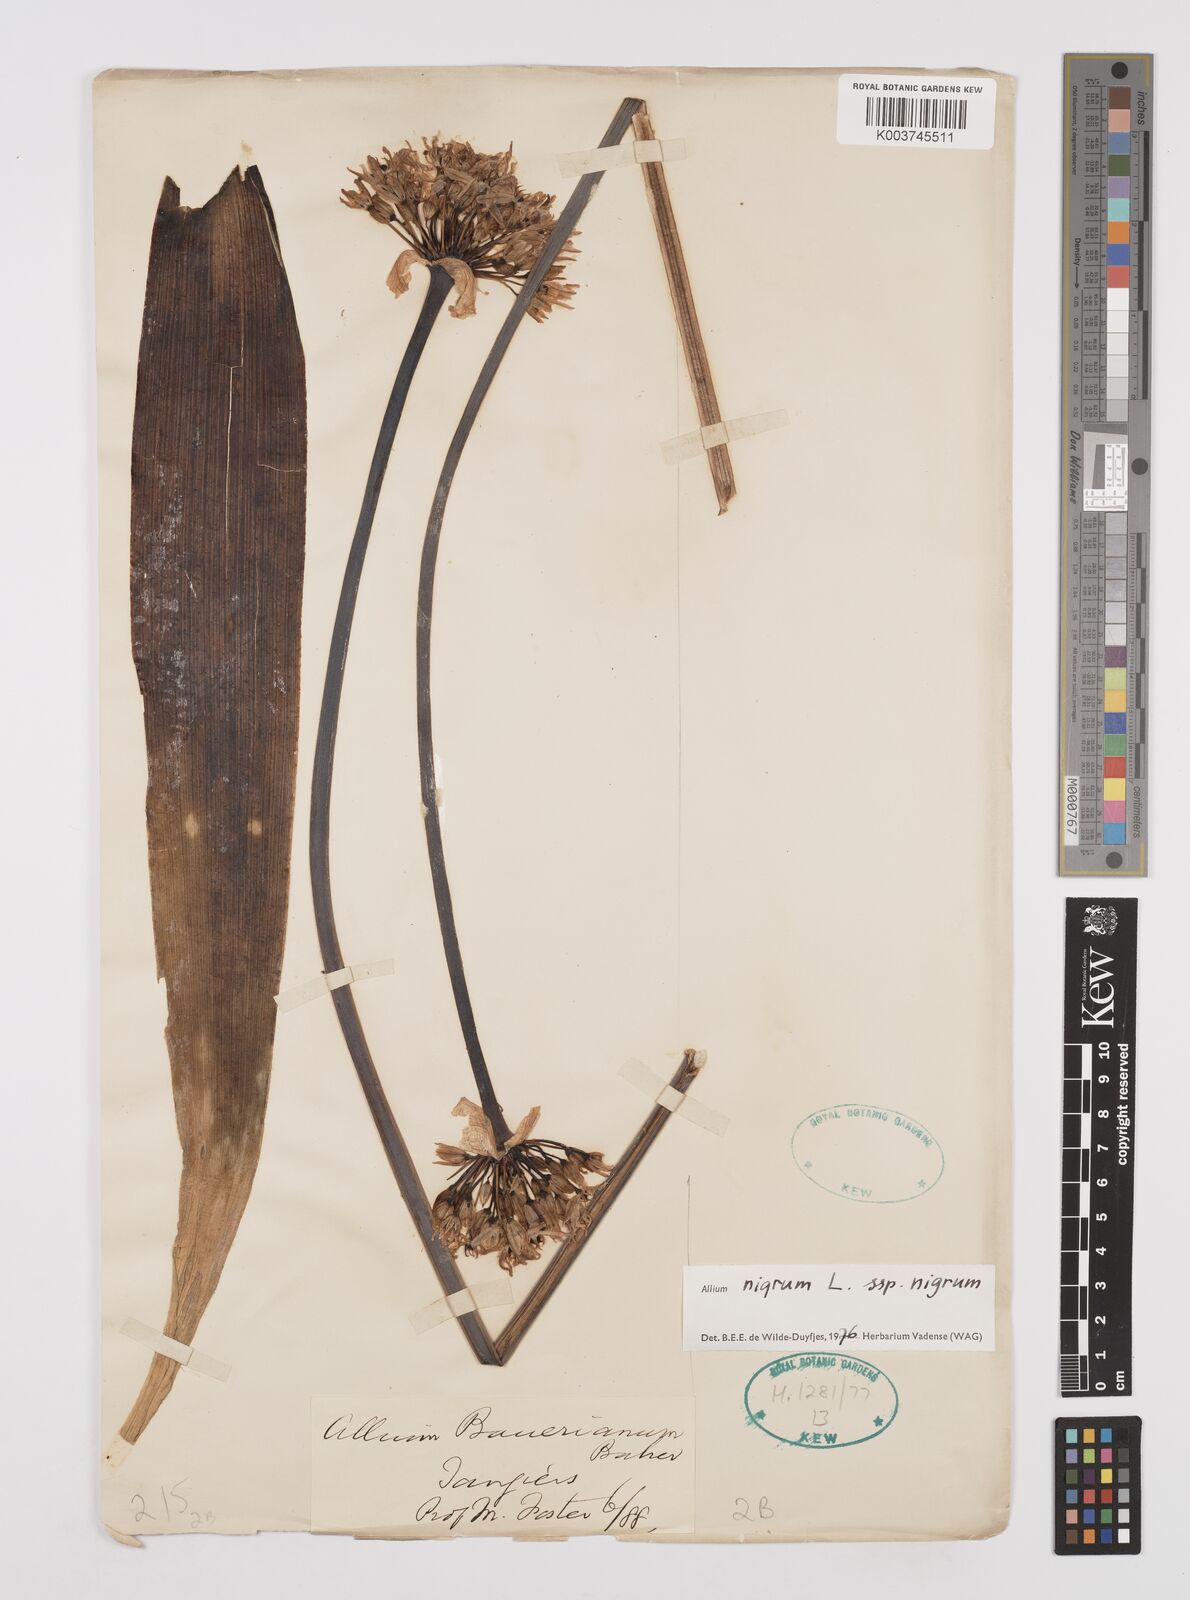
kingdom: Plantae
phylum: Tracheophyta
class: Liliopsida
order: Asparagales
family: Amaryllidaceae
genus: Allium
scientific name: Allium nigrum
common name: Black garlic
